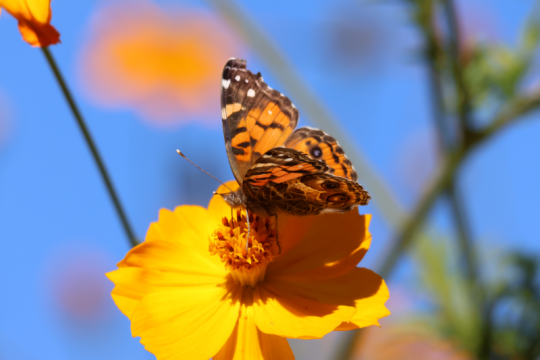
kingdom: Animalia
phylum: Arthropoda
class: Insecta
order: Lepidoptera
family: Nymphalidae
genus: Vanessa
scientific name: Vanessa virginiensis
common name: American Lady
